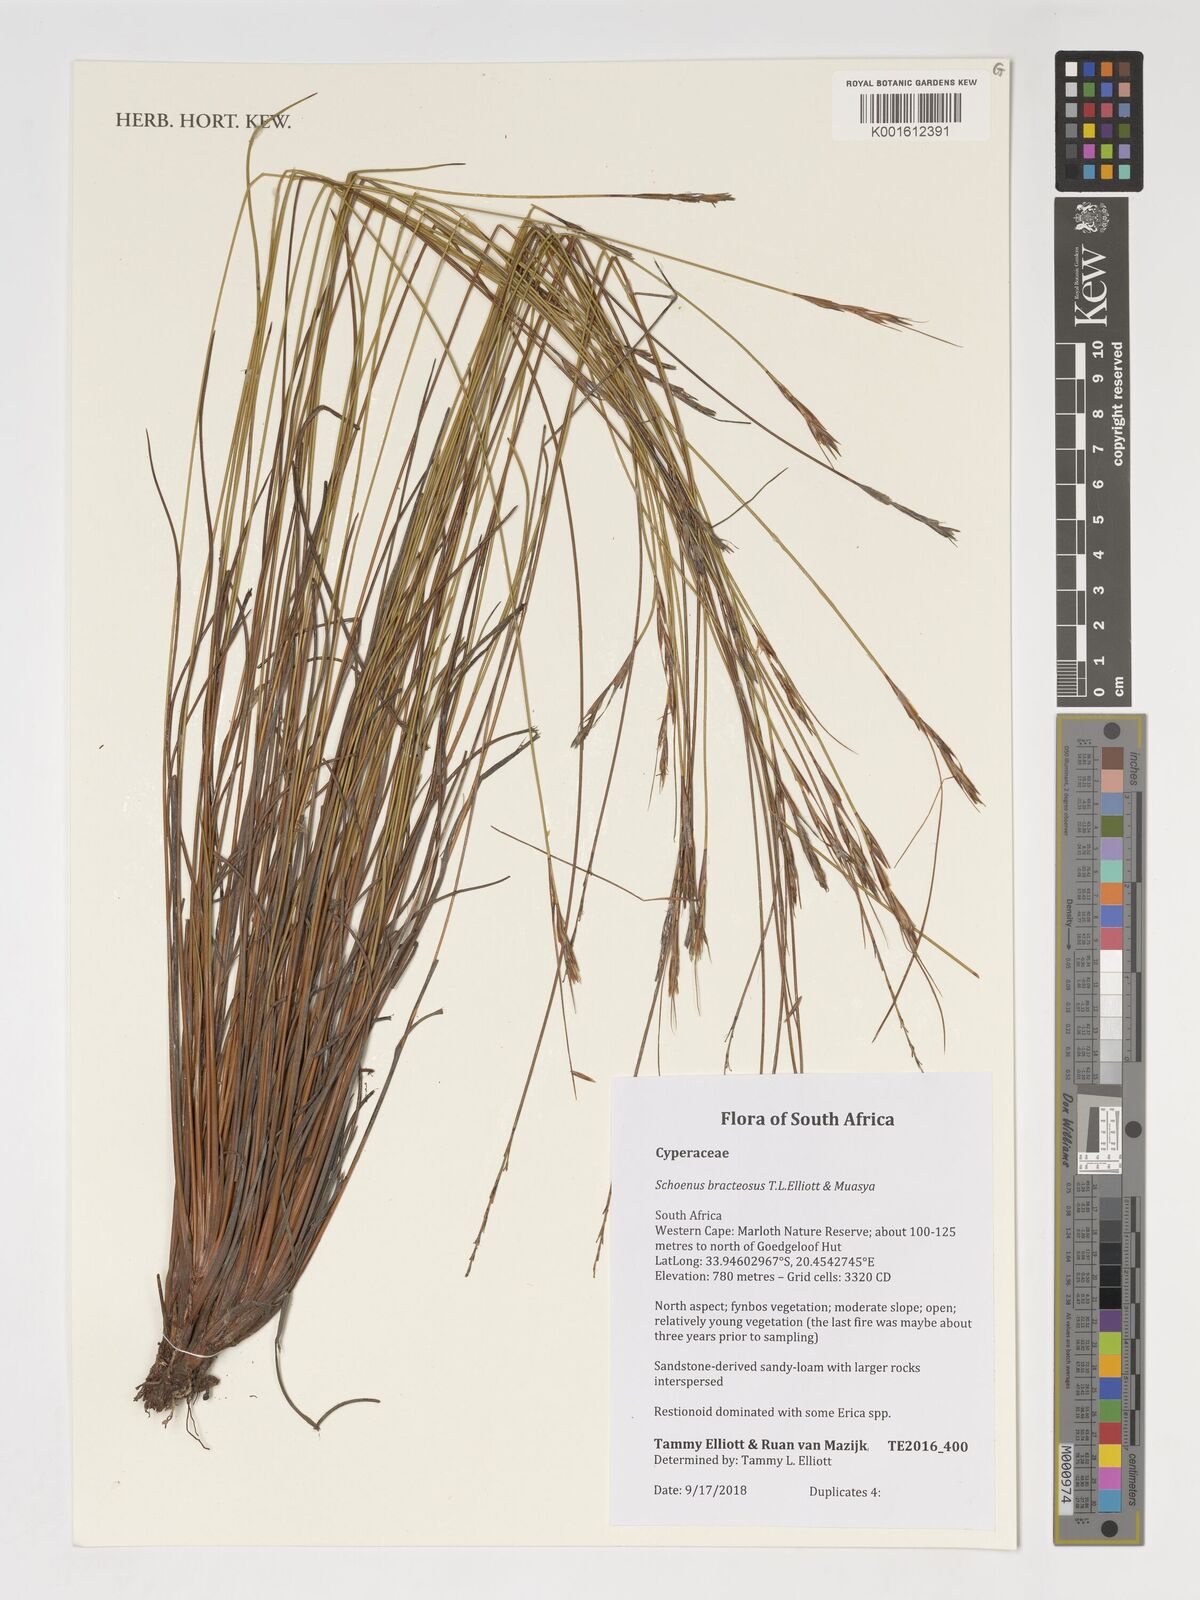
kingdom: Plantae
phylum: Tracheophyta
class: Liliopsida
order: Poales
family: Cyperaceae
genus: Schoenus
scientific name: Schoenus bracteosus
